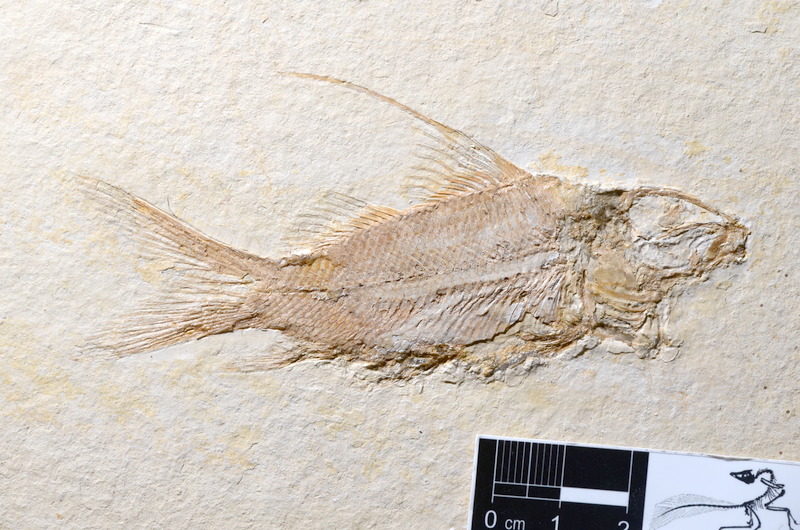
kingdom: Animalia
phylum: Chordata
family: Macrosemiidae
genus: Propterus
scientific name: Propterus microstomus
